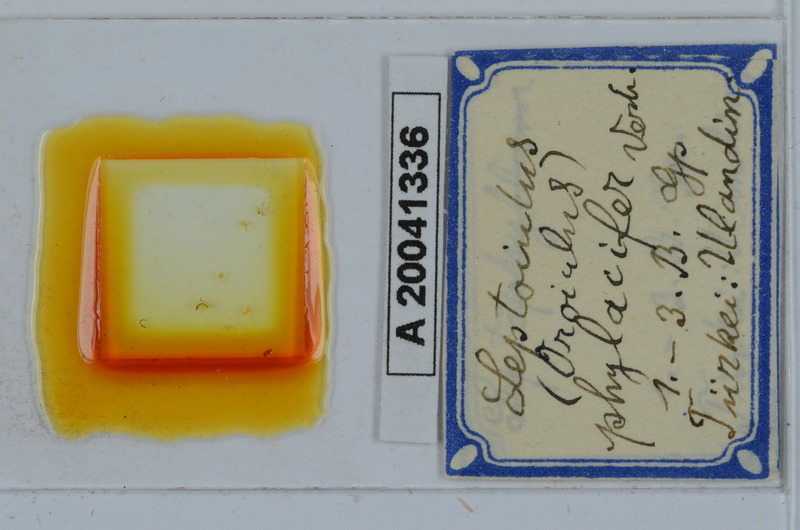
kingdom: Animalia
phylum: Arthropoda
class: Diplopoda
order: Julida
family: Julidae
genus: Oroiulus
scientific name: Oroiulus phylacifer
